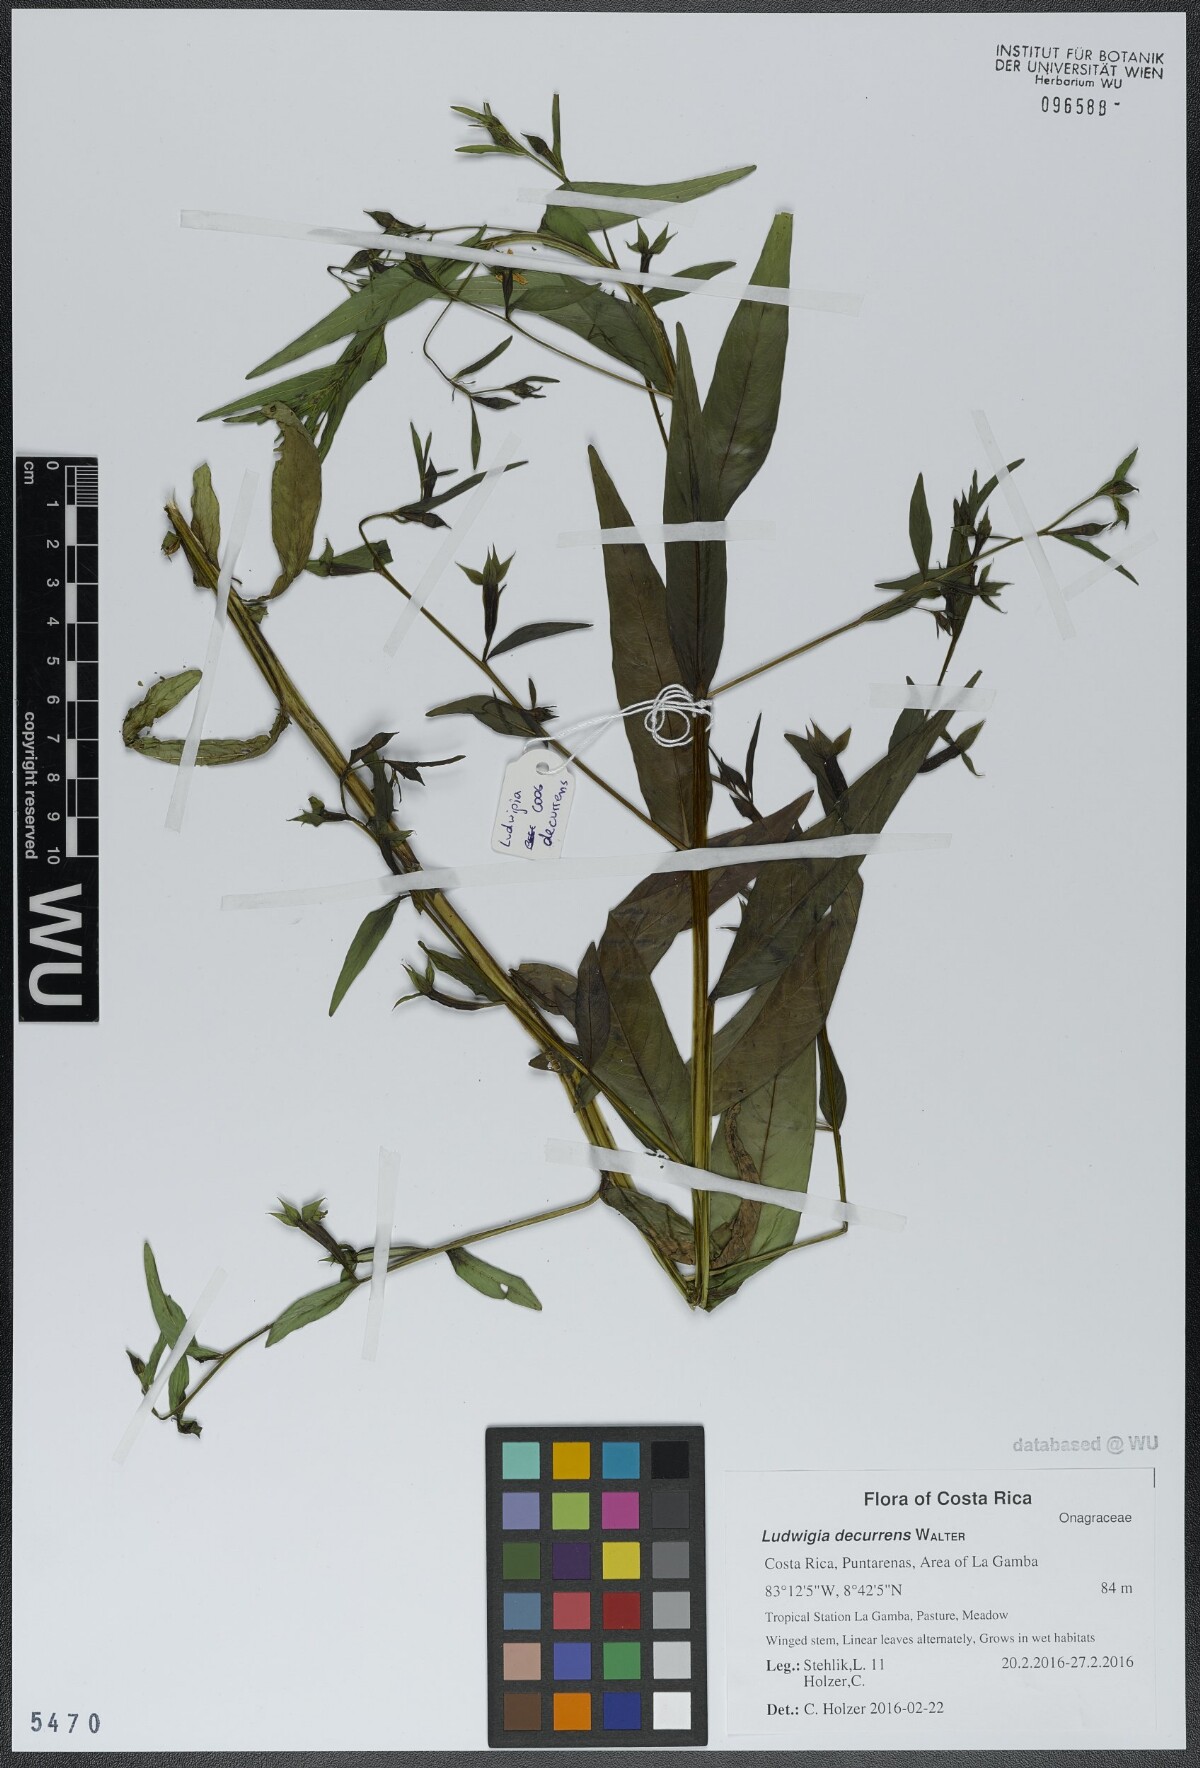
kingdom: Plantae
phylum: Tracheophyta
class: Magnoliopsida
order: Myrtales
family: Onagraceae
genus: Ludwigia
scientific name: Ludwigia decurrens
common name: Winged water-primrose
